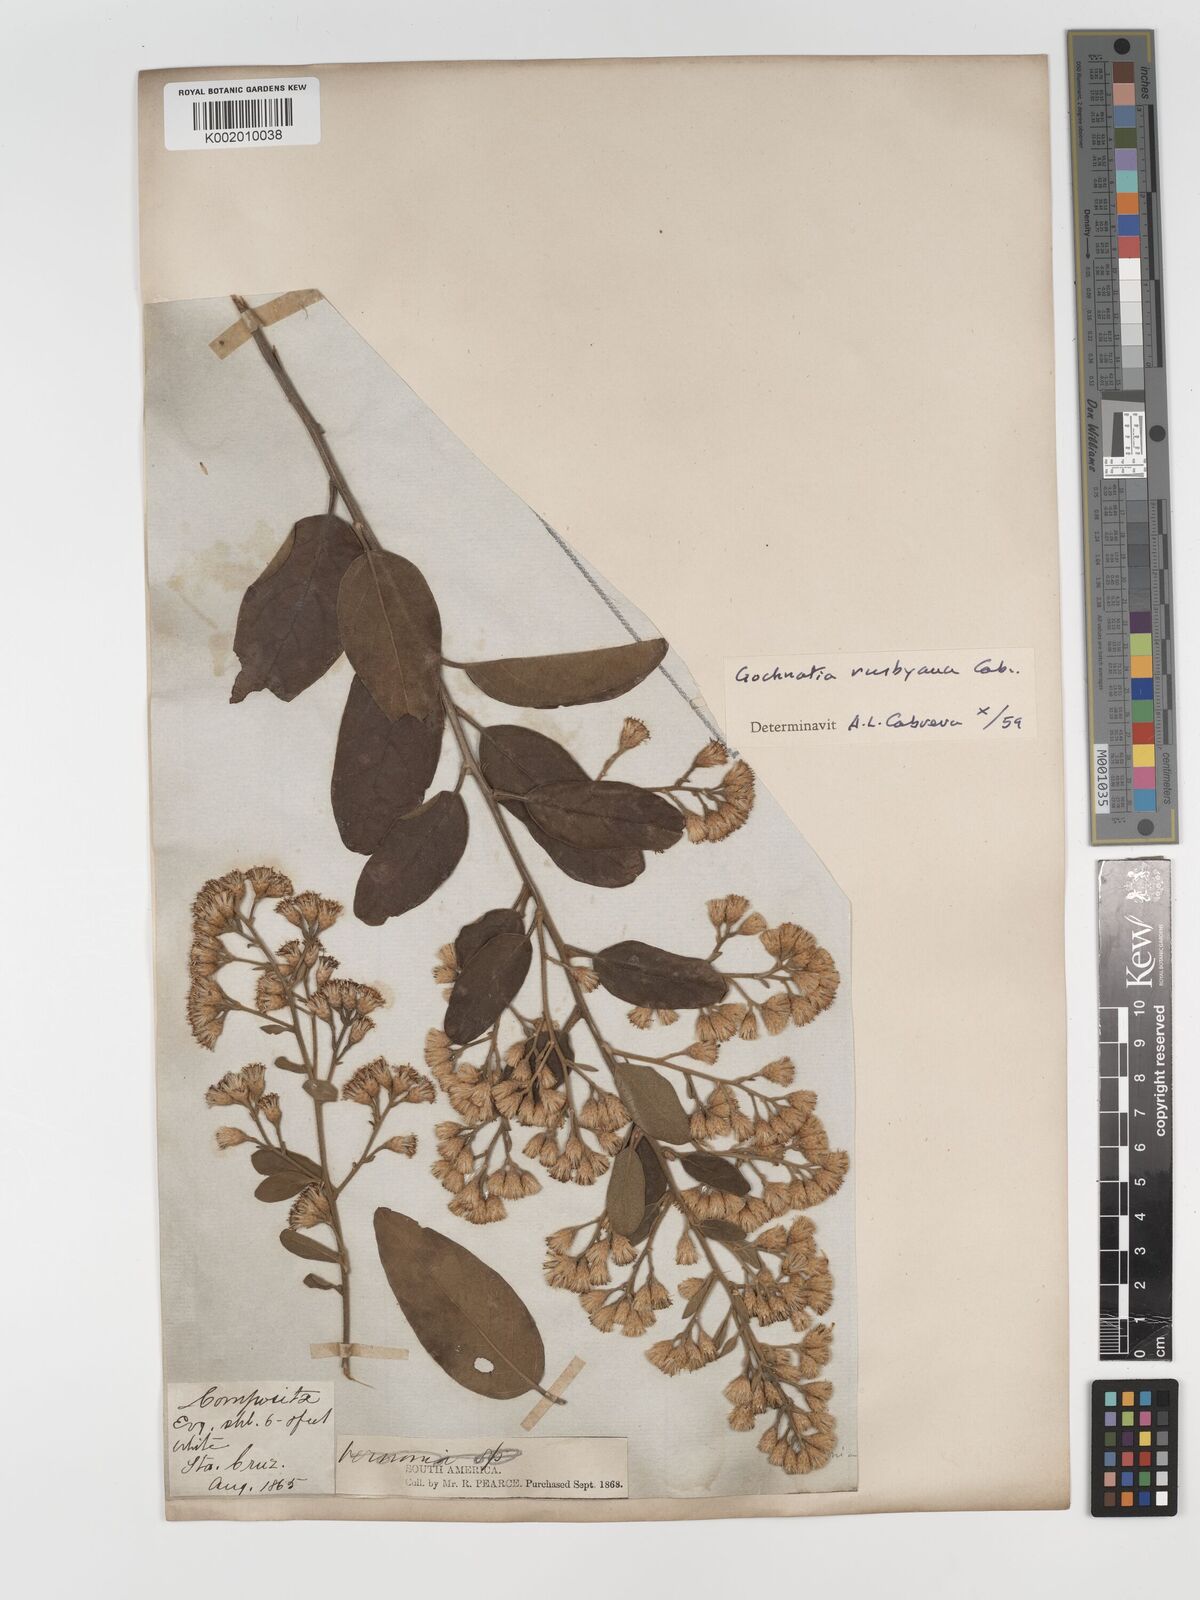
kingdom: Plantae
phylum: Tracheophyta
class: Magnoliopsida
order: Asterales
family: Asteraceae
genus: Moquiniastrum
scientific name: Moquiniastrum bolivianum
